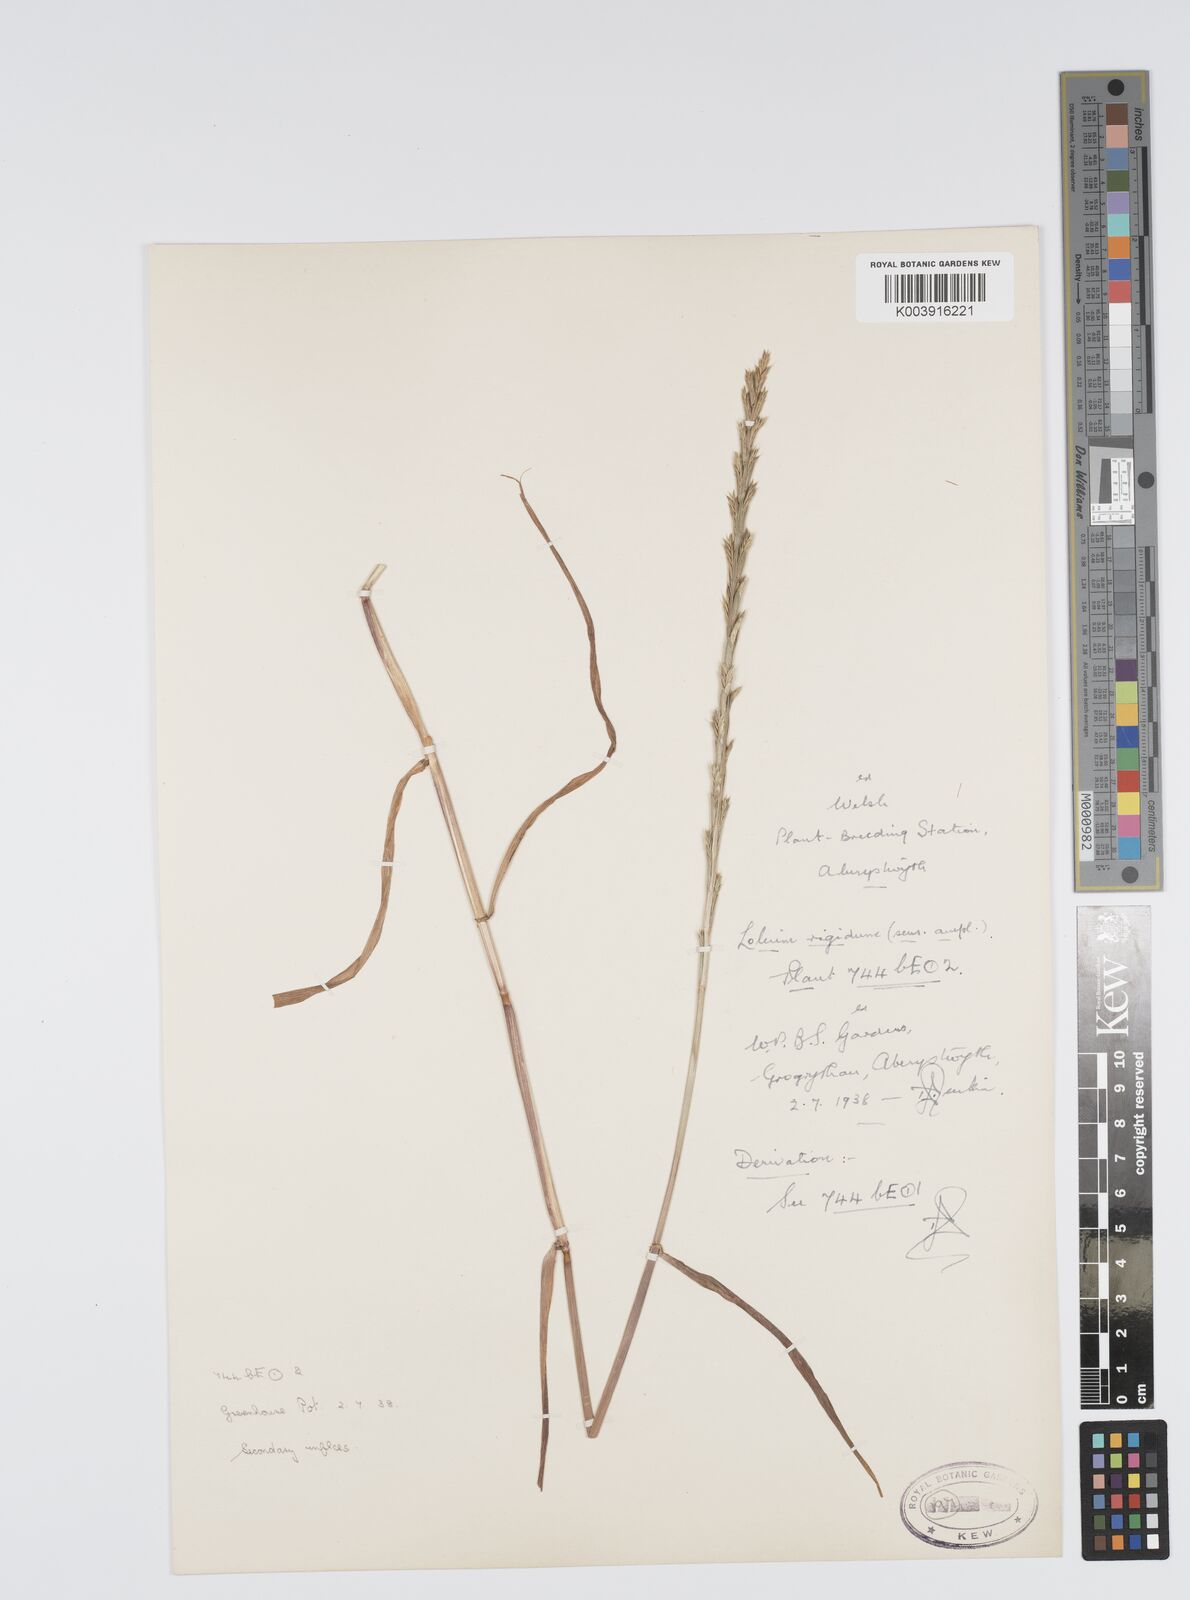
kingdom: Plantae
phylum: Tracheophyta
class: Liliopsida
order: Poales
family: Poaceae
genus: Lolium
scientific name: Lolium rigidum
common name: Wimmera ryegrass
